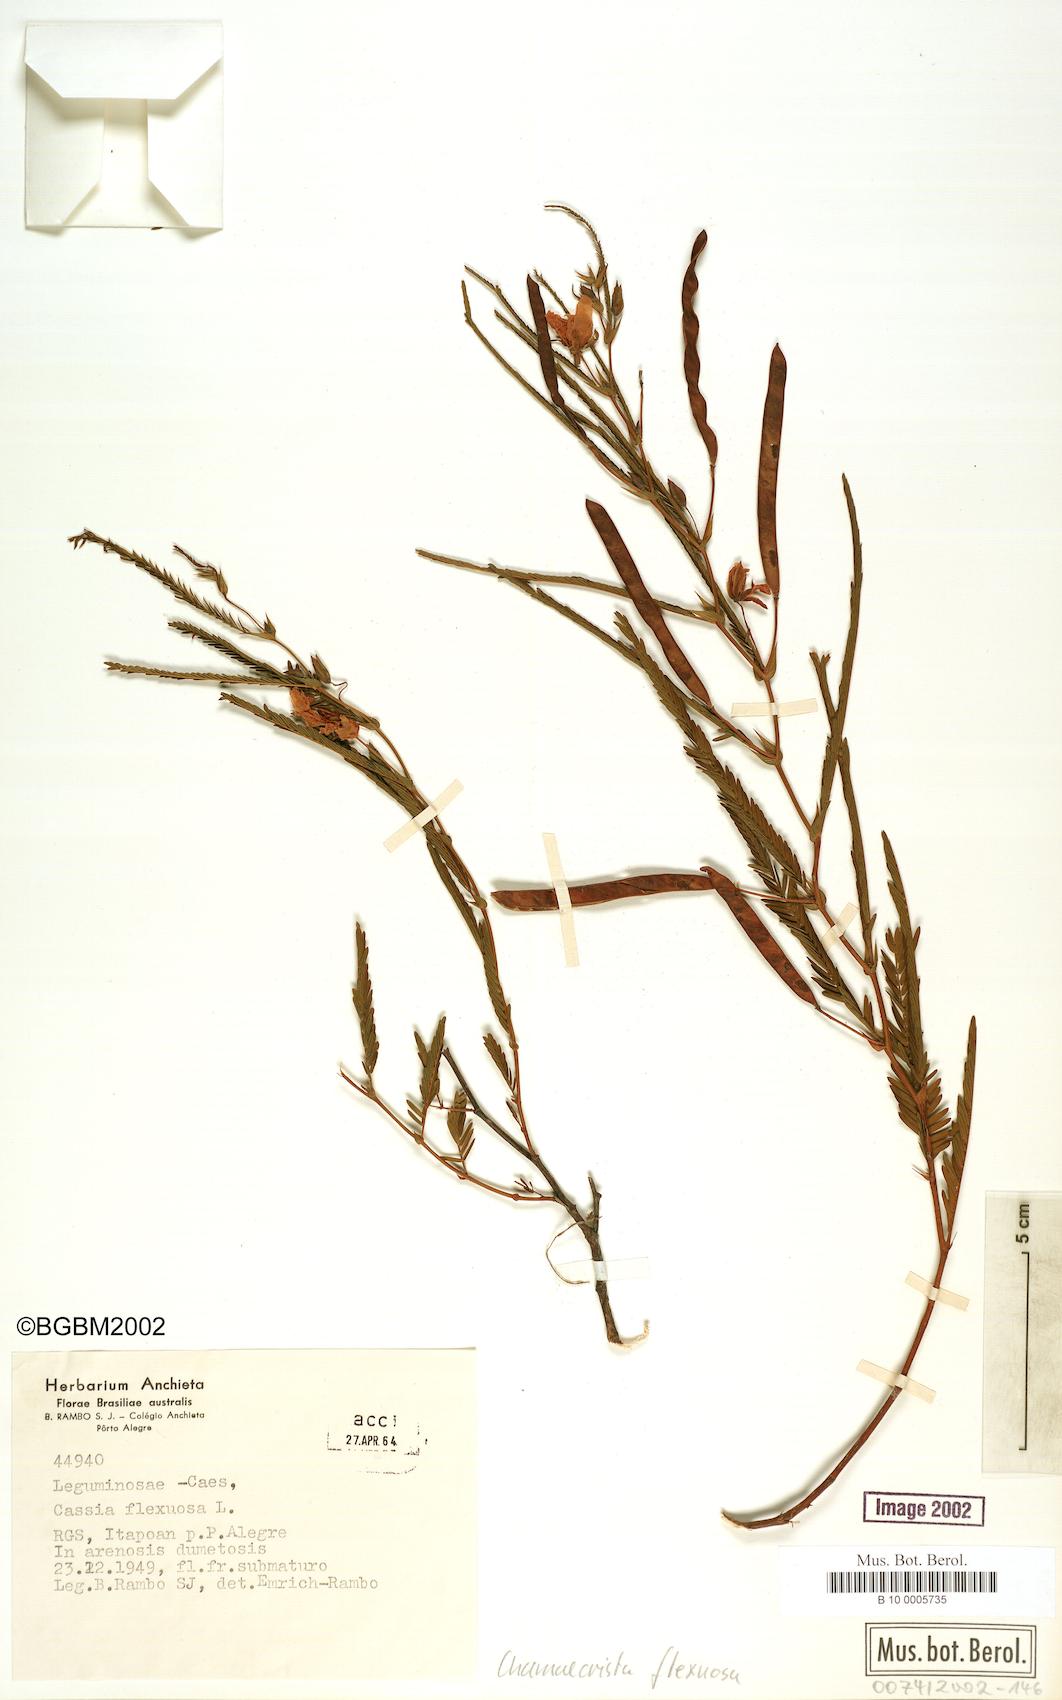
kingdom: Plantae
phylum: Tracheophyta
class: Magnoliopsida
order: Fabales
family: Fabaceae
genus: Chamaecrista
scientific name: Chamaecrista flexuosa
